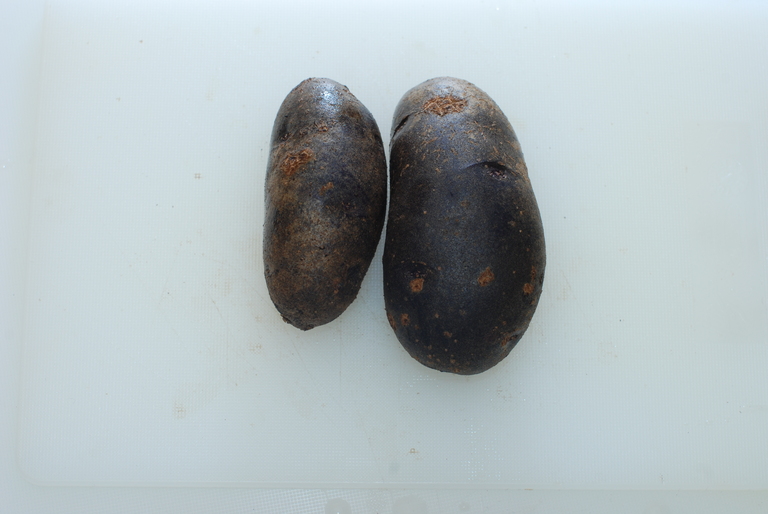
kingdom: Plantae
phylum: Tracheophyta
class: Magnoliopsida
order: Solanales
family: Solanaceae
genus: Solanum
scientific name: Solanum tuberosum
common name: Potato
